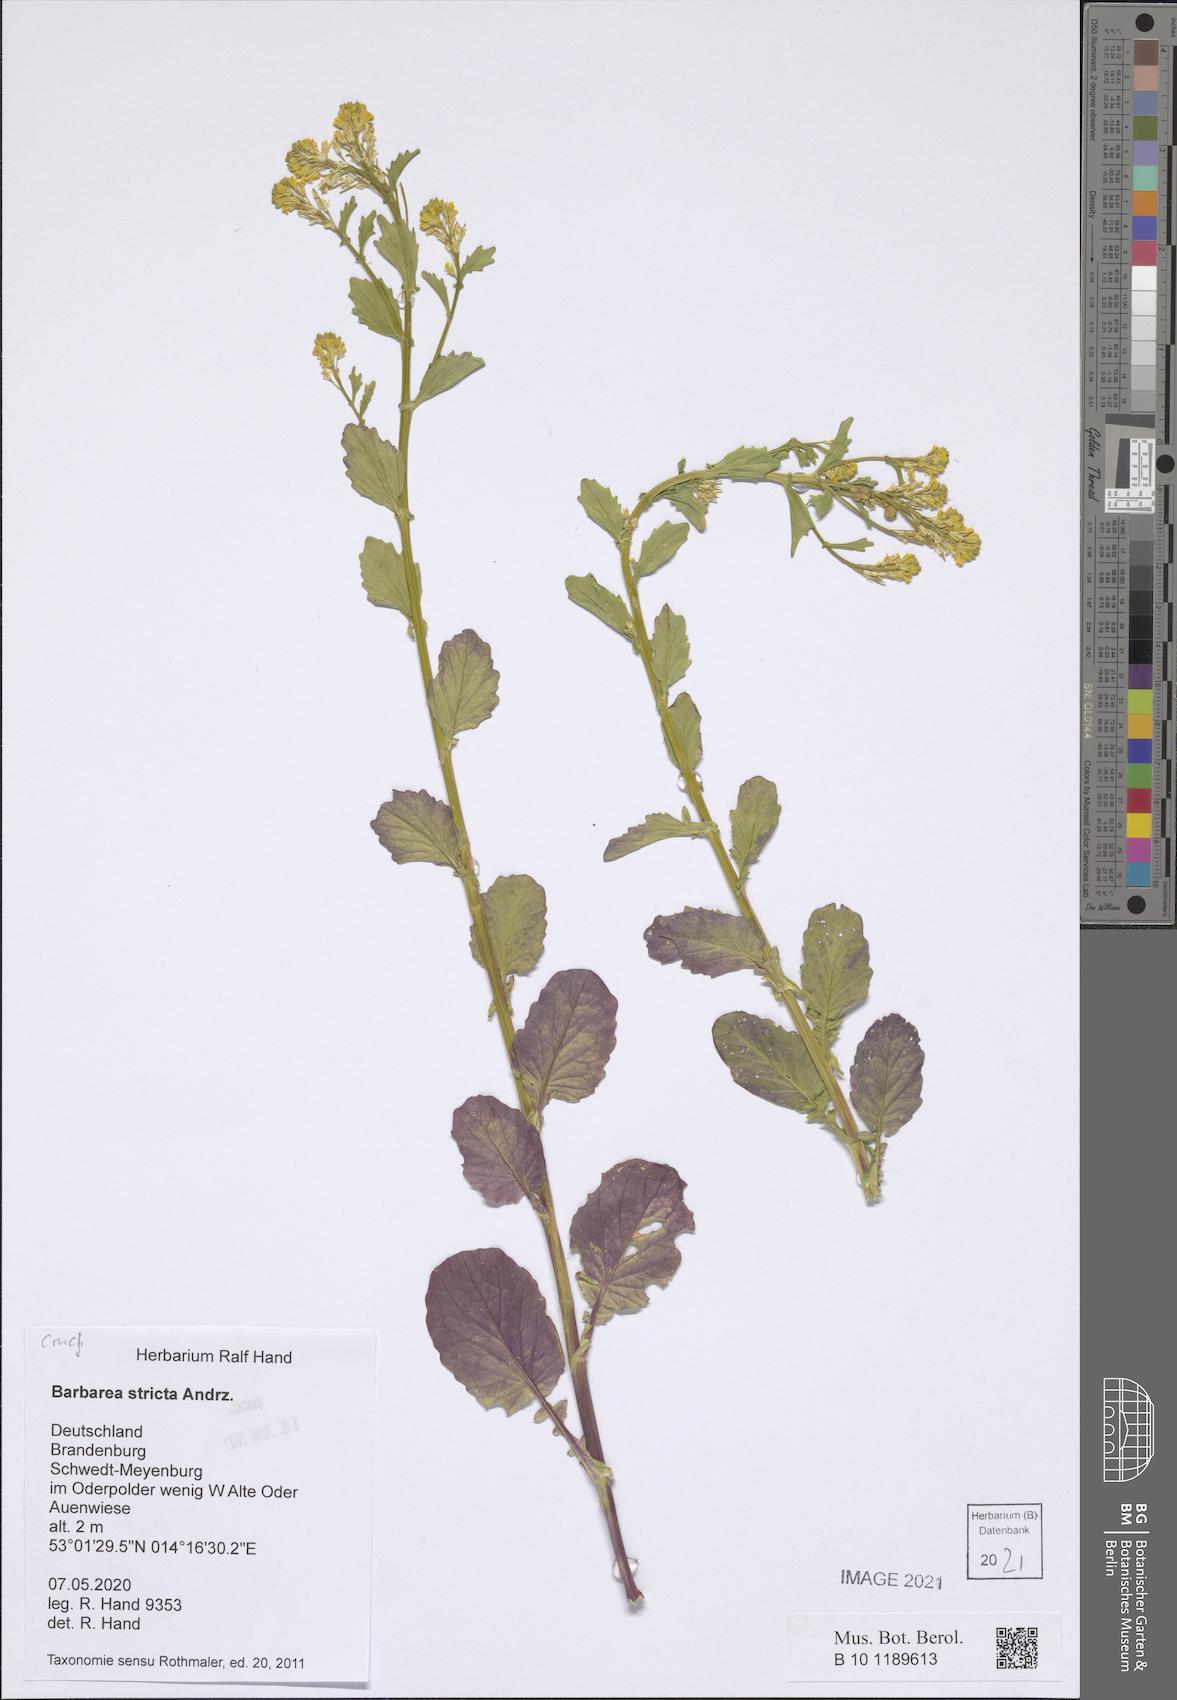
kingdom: Plantae
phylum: Tracheophyta
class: Magnoliopsida
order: Brassicales
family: Brassicaceae
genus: Barbarea
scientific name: Barbarea stricta
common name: Small-flowered winter-cress
